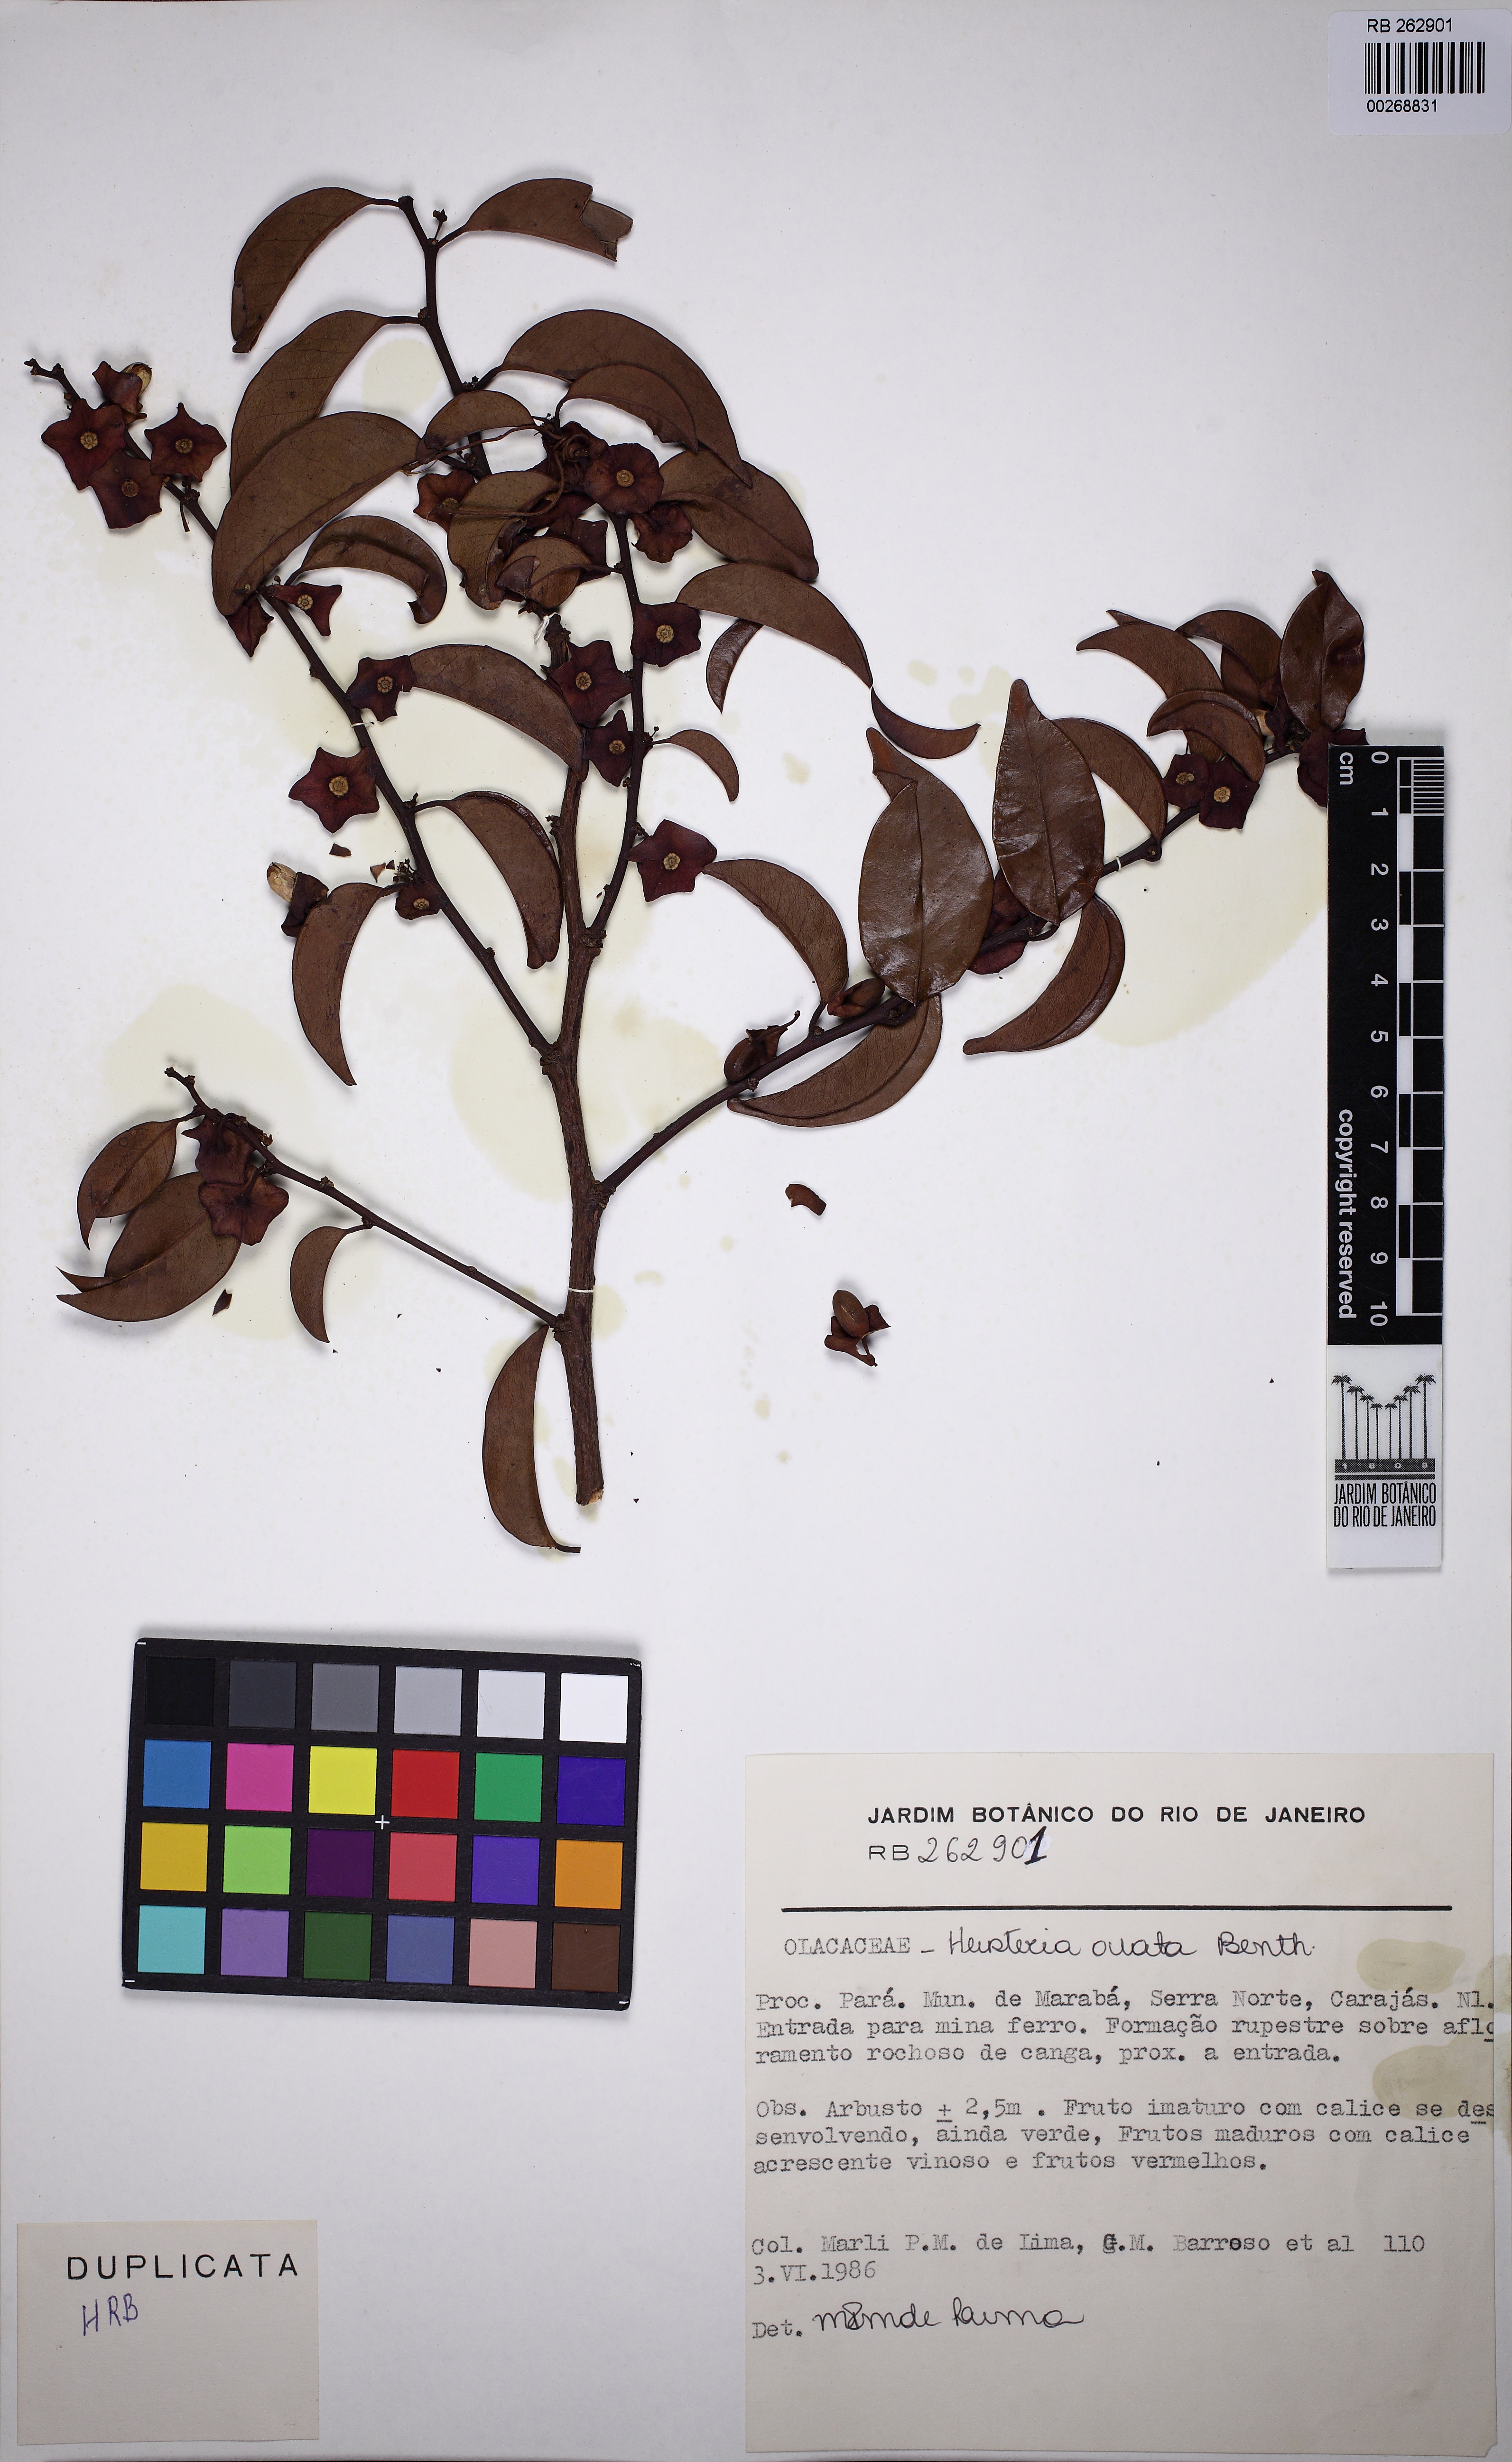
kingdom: Plantae
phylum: Tracheophyta
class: Magnoliopsida
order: Santalales
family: Erythropalaceae
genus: Heisteria
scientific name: Heisteria ovata
